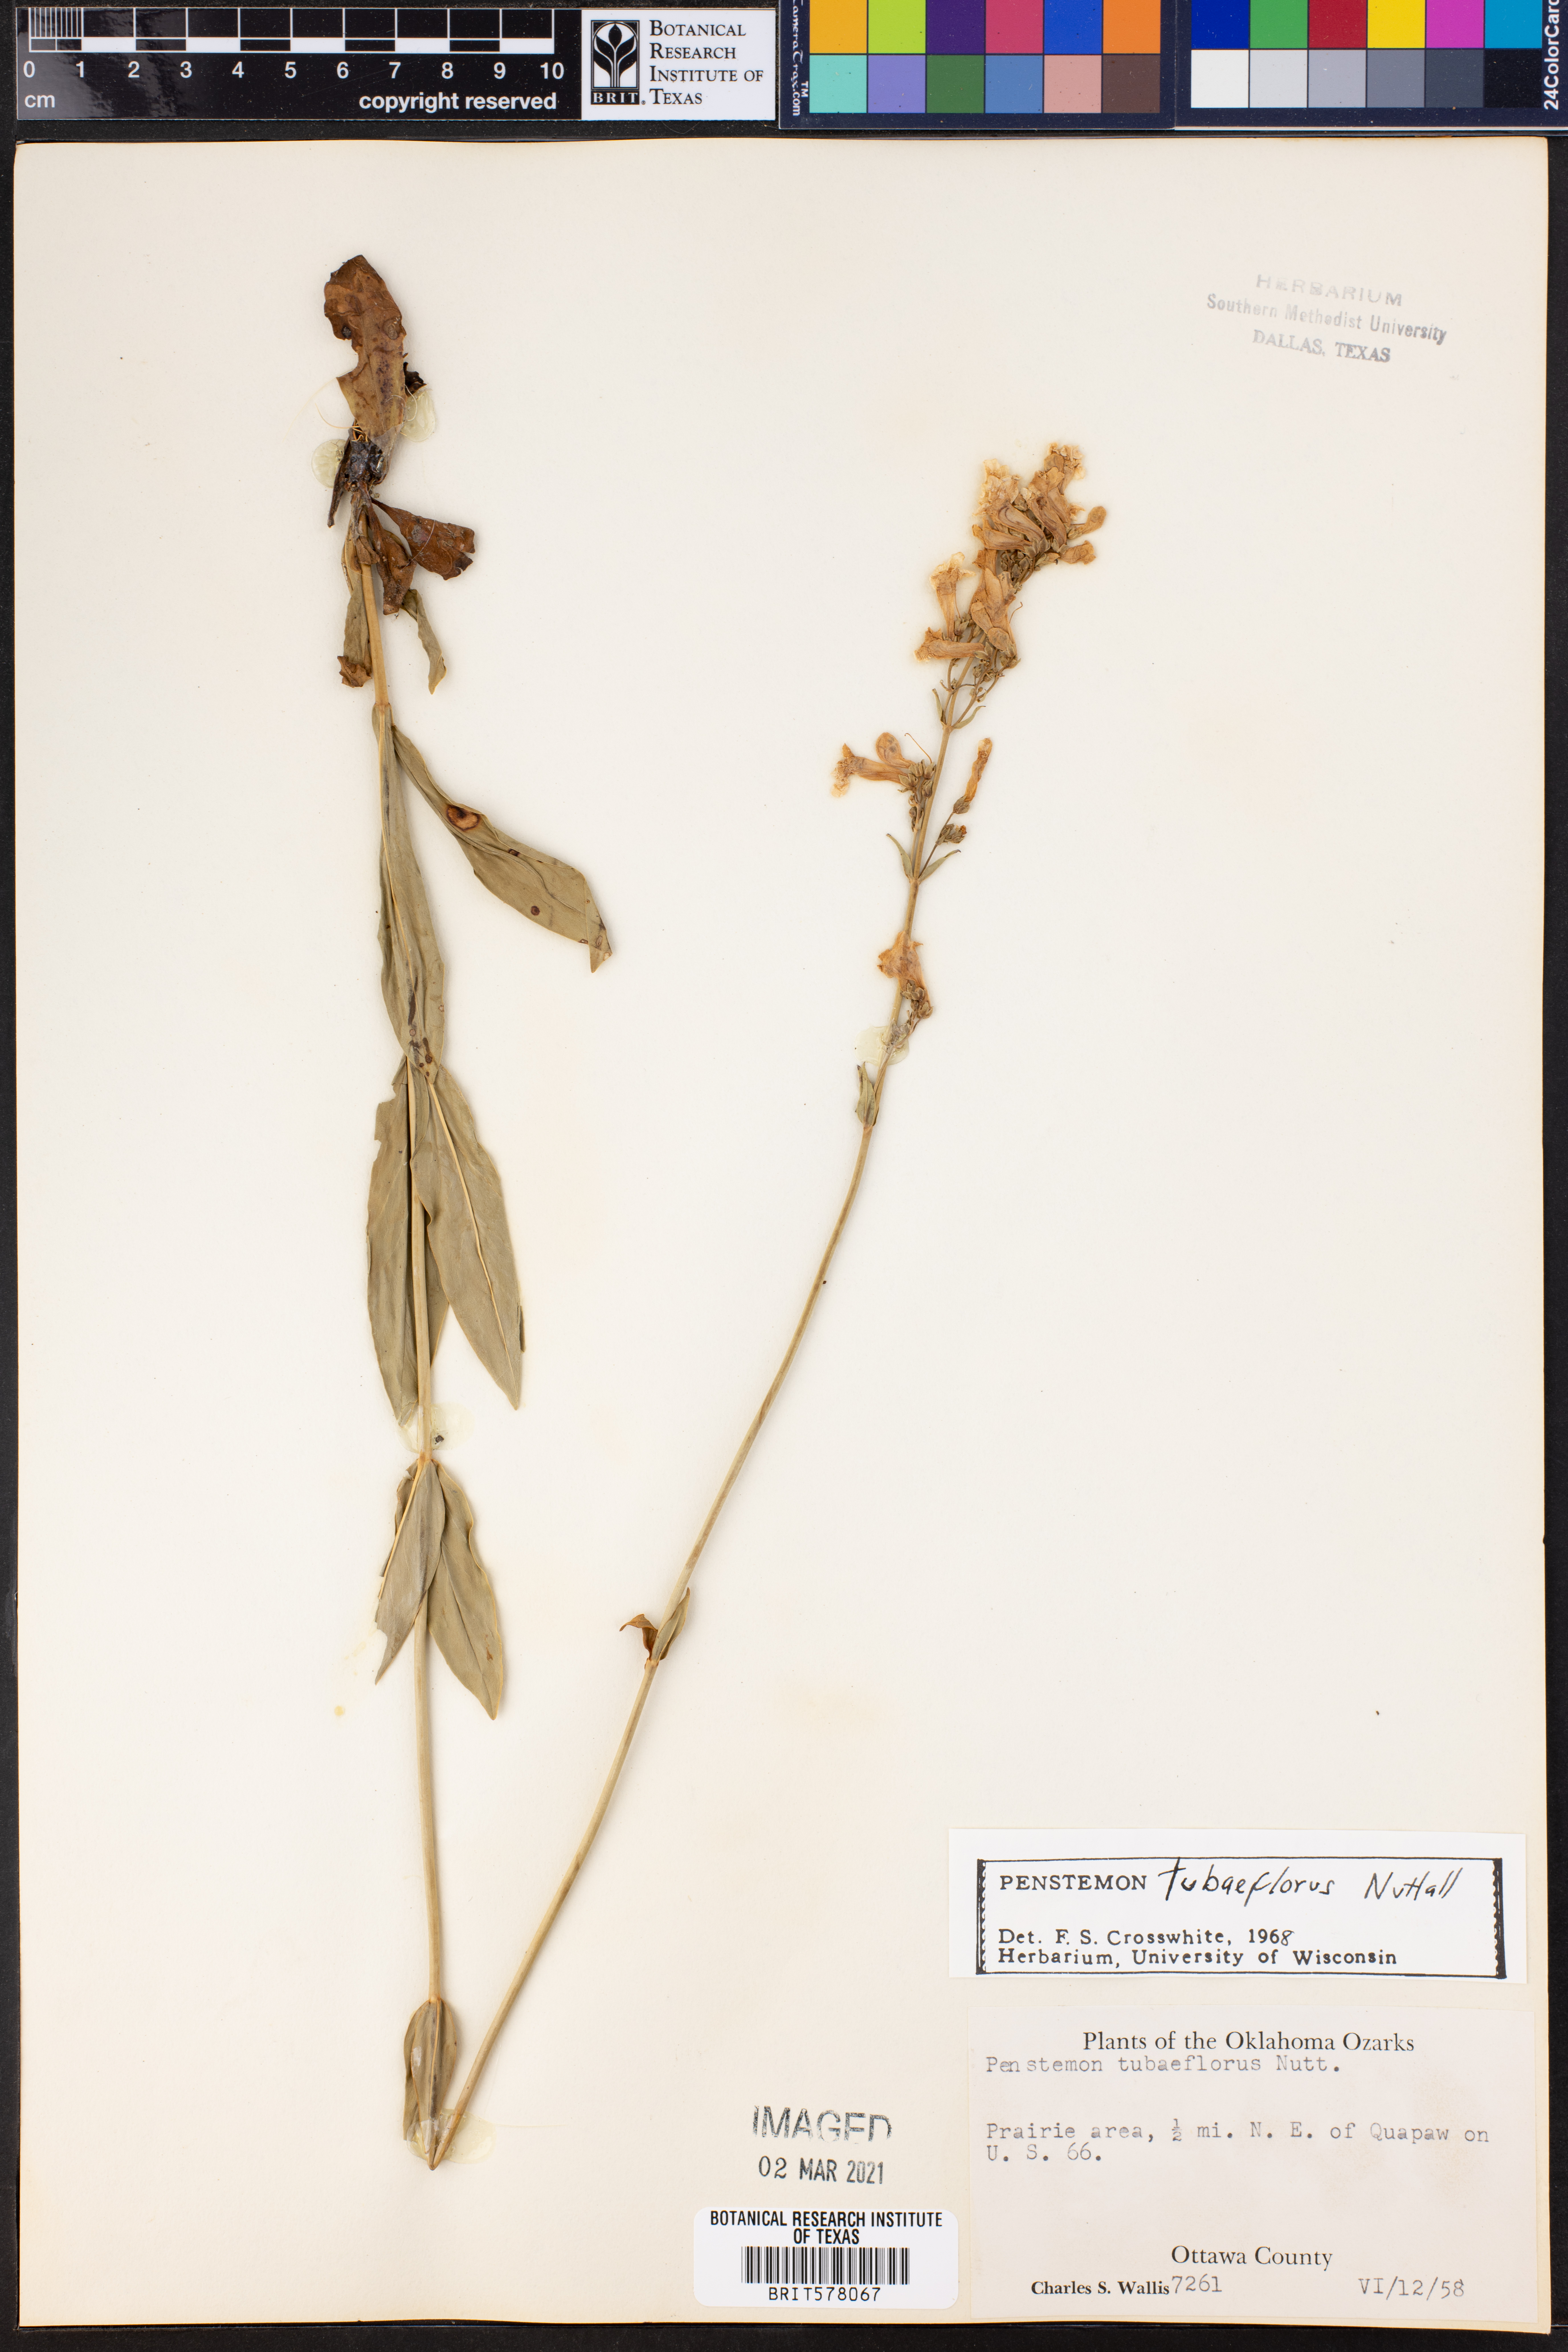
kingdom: Plantae
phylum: Tracheophyta
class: Magnoliopsida
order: Lamiales
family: Plantaginaceae
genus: Penstemon
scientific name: Penstemon tubaeflorus
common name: White wand beardtongue
